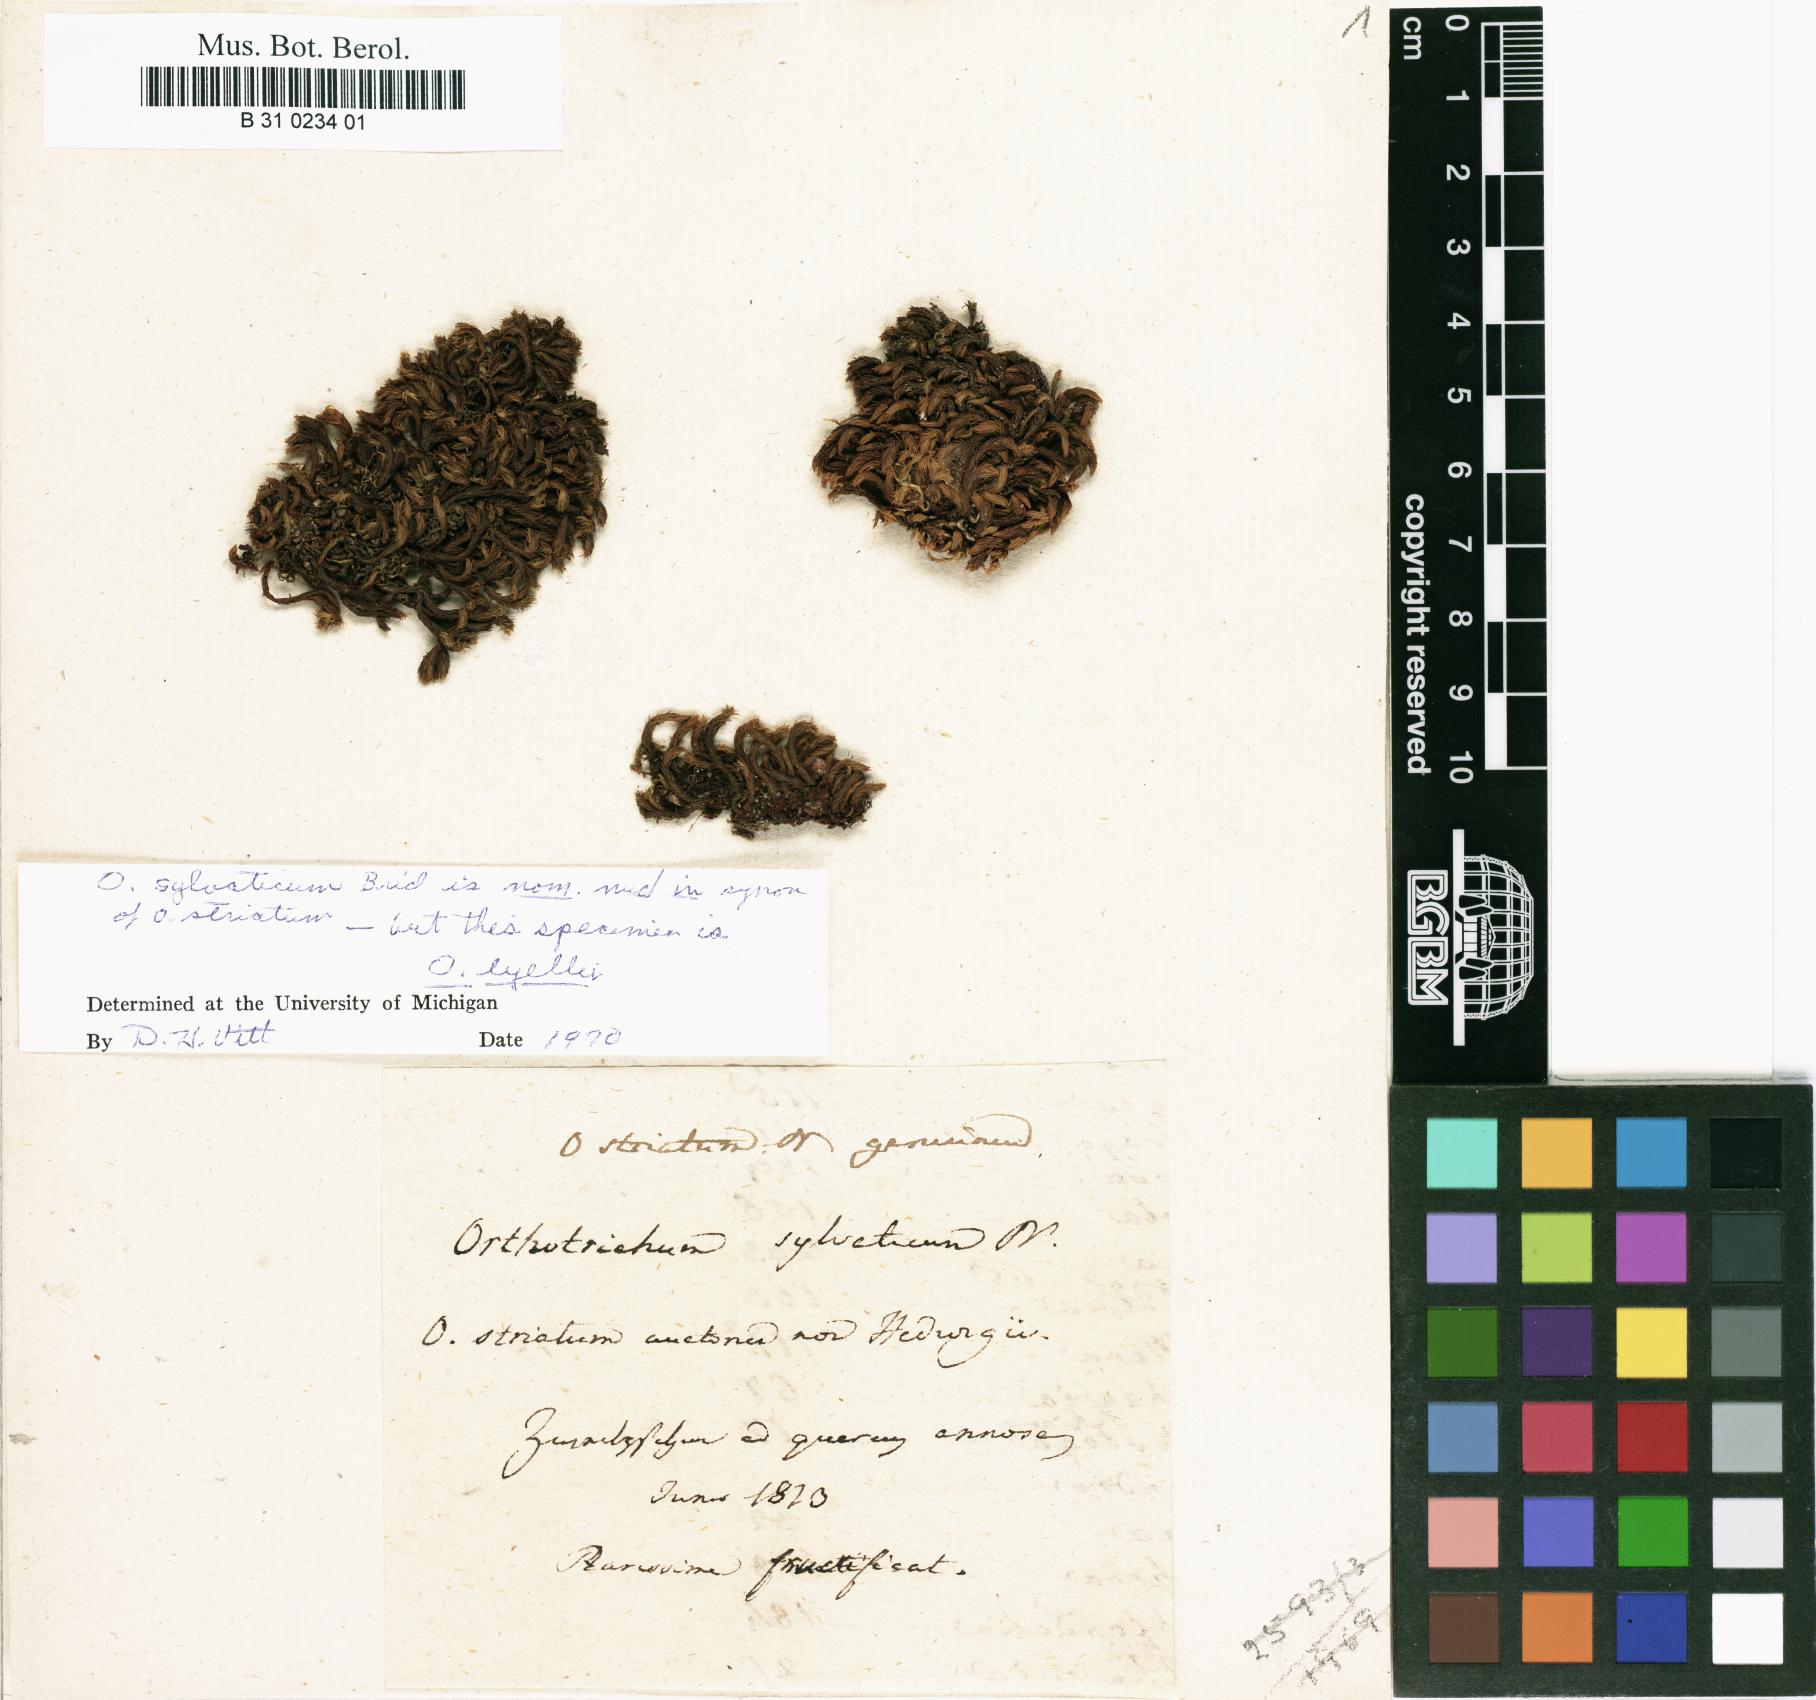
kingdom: Plantae
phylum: Bryophyta
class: Bryopsida
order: Orthotrichales
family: Orthotrichaceae
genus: Lewinskya
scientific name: Lewinskya striata
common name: Shaw's bristle-moss
